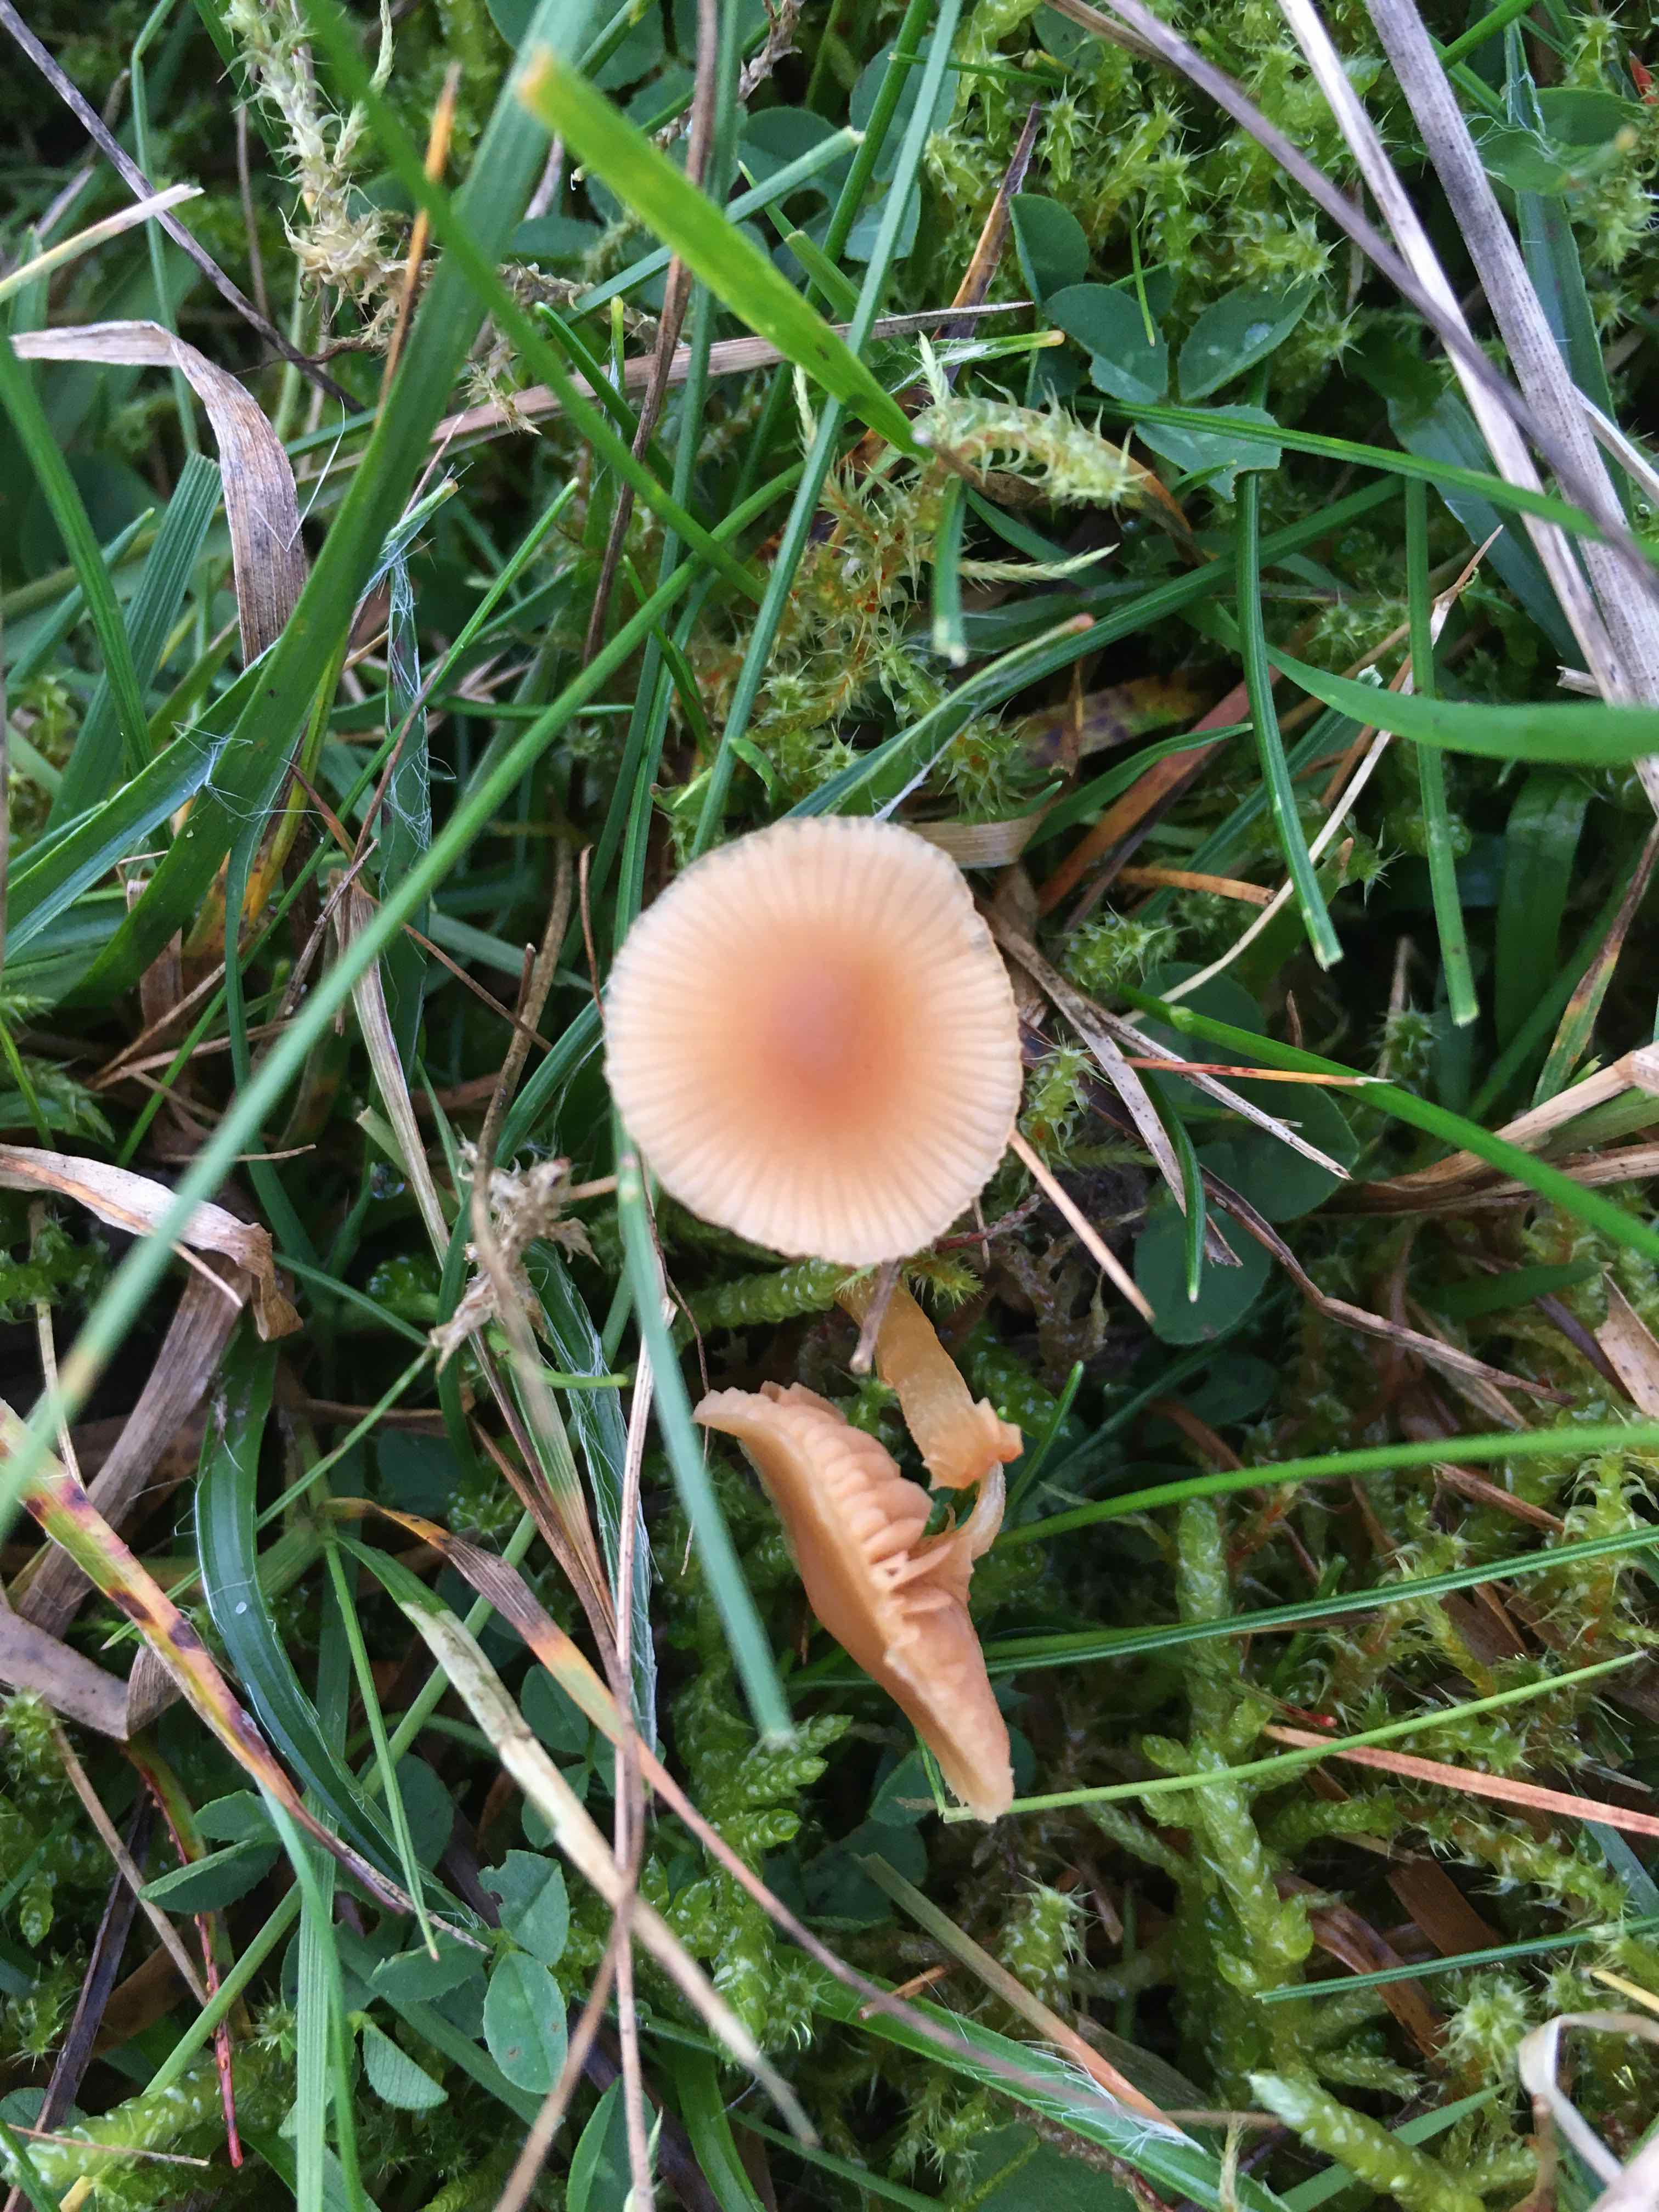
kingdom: Fungi
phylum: Basidiomycota
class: Agaricomycetes
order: Agaricales
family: Tubariaceae
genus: Tubaria
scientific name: Tubaria furfuracea
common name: kliddet fnughat
